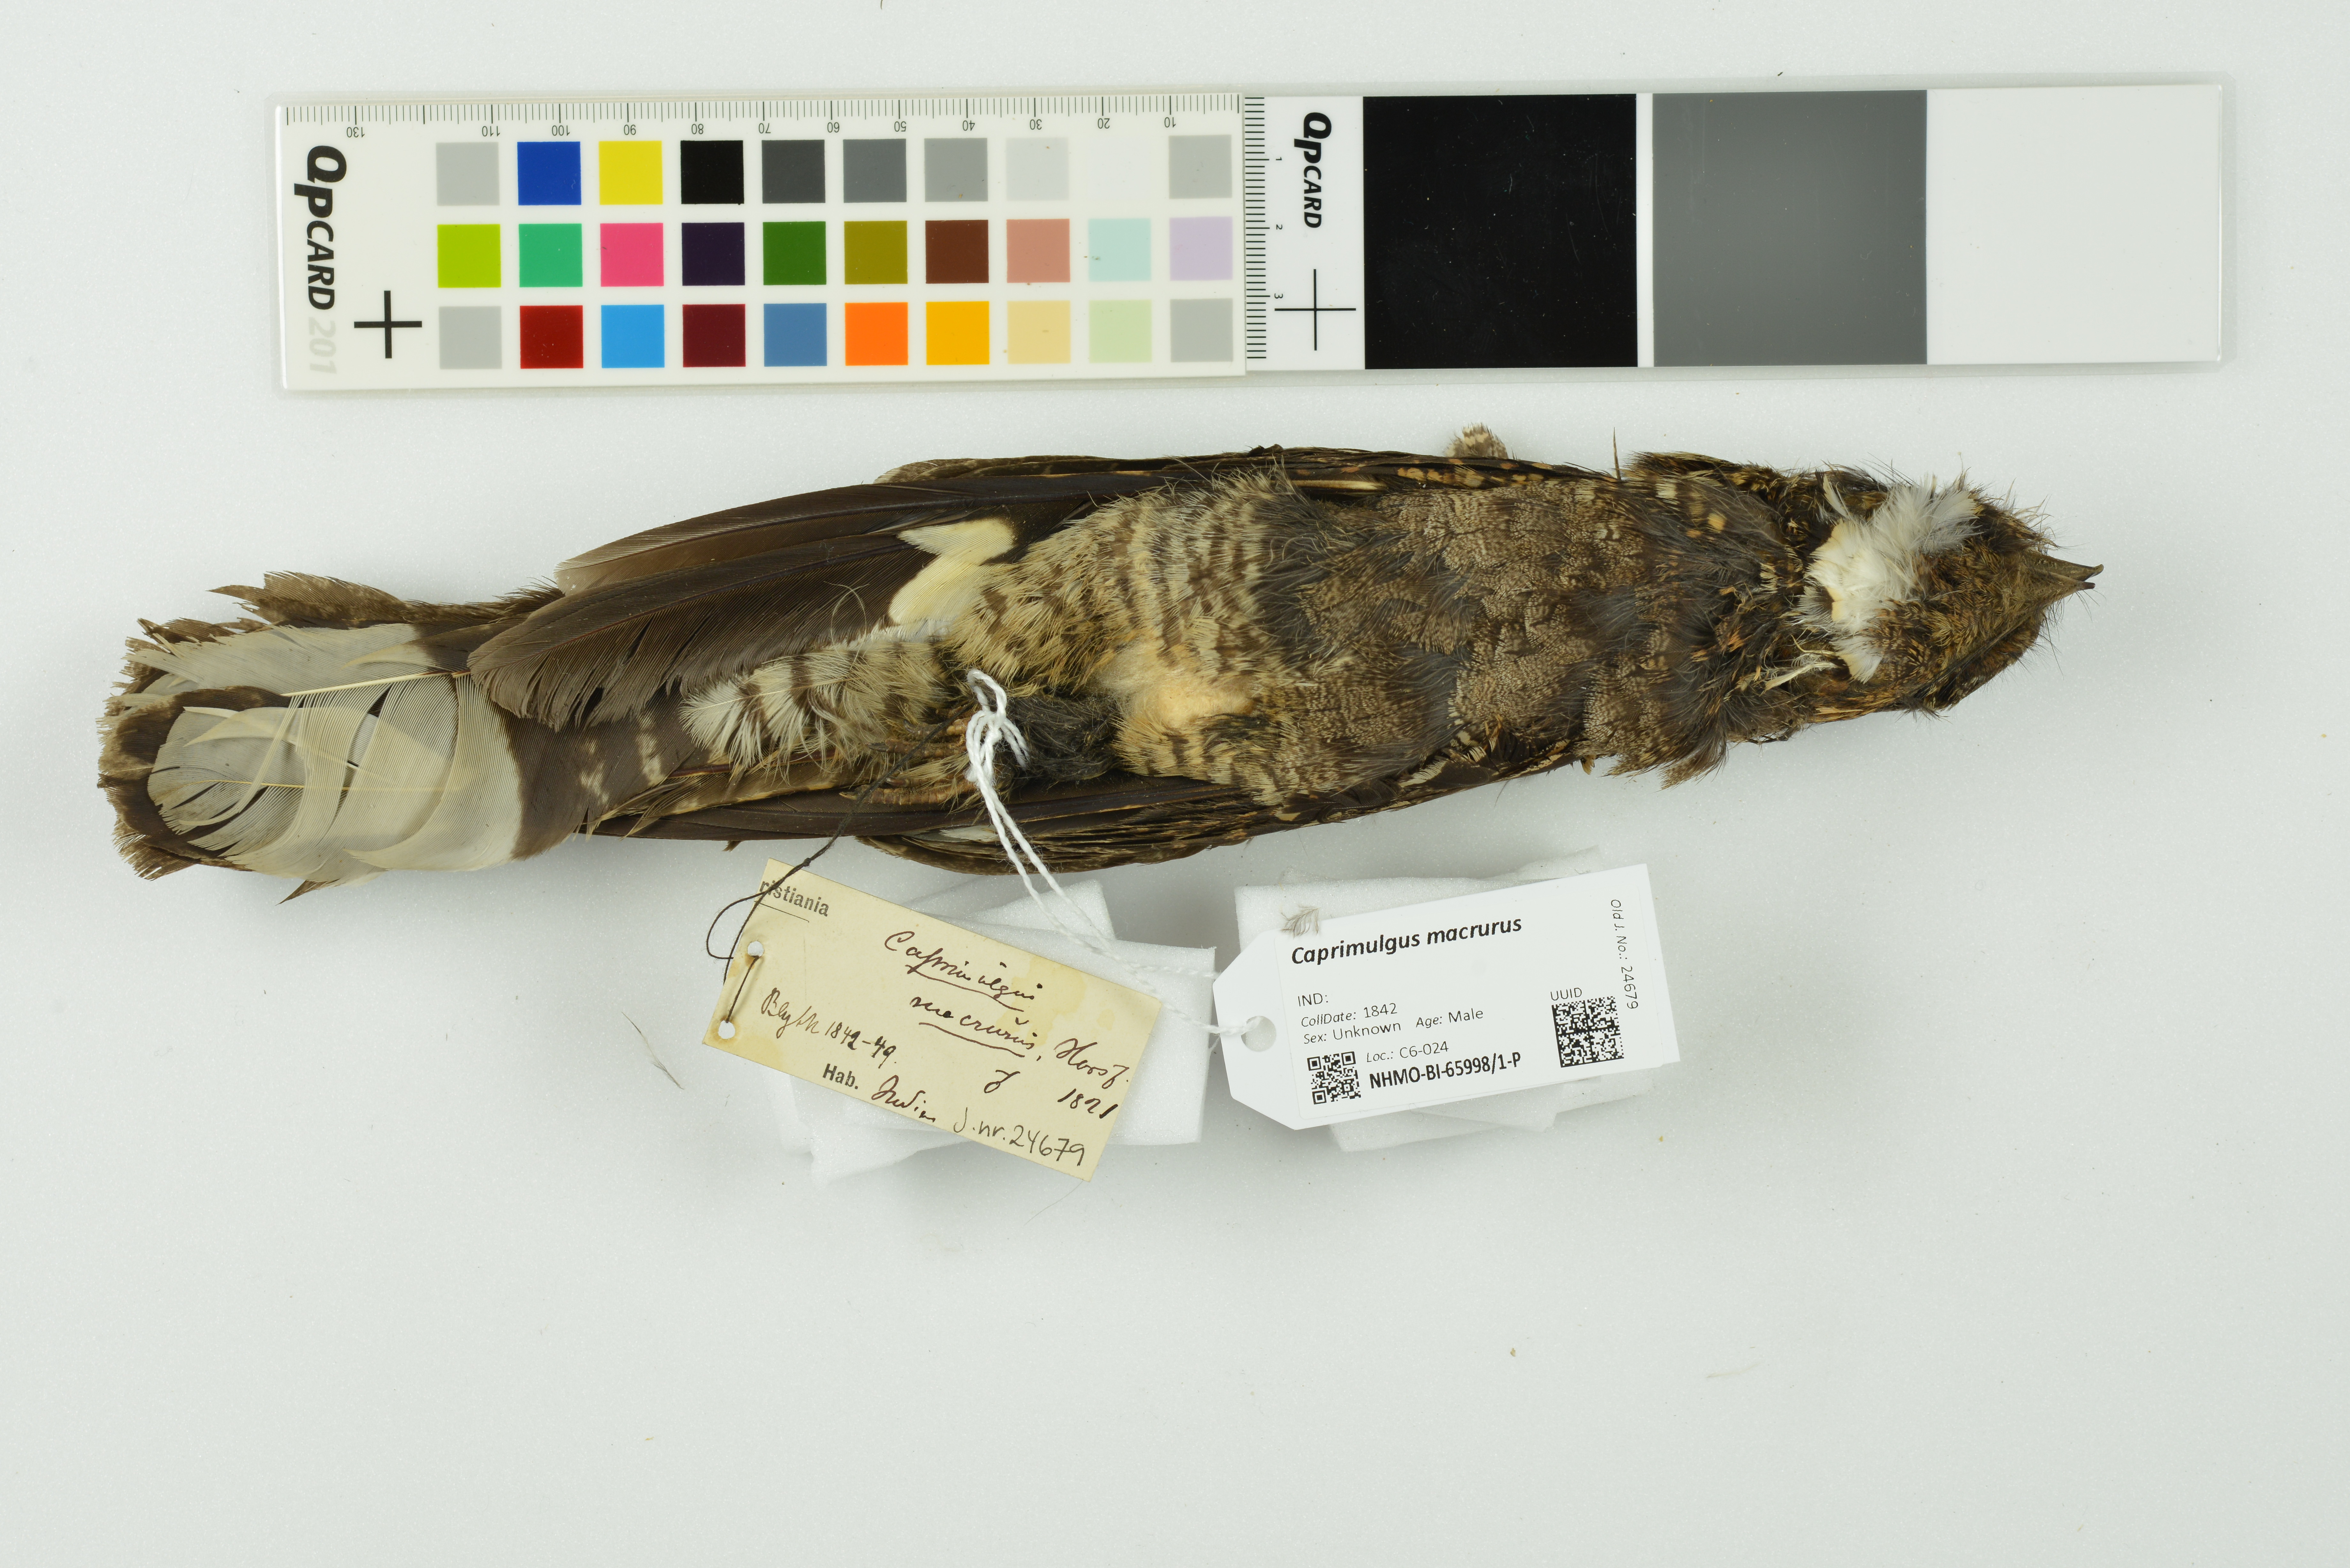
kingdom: Animalia
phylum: Chordata
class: Aves
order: Caprimulgiformes
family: Caprimulgidae
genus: Caprimulgus
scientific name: Caprimulgus macrurus
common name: Large-tailed nightjar
